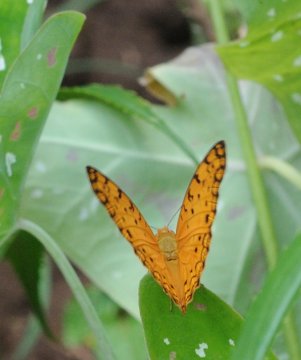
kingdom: Animalia
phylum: Arthropoda
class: Insecta
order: Lepidoptera
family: Nymphalidae
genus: Phalanta
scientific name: Phalanta phalantha
